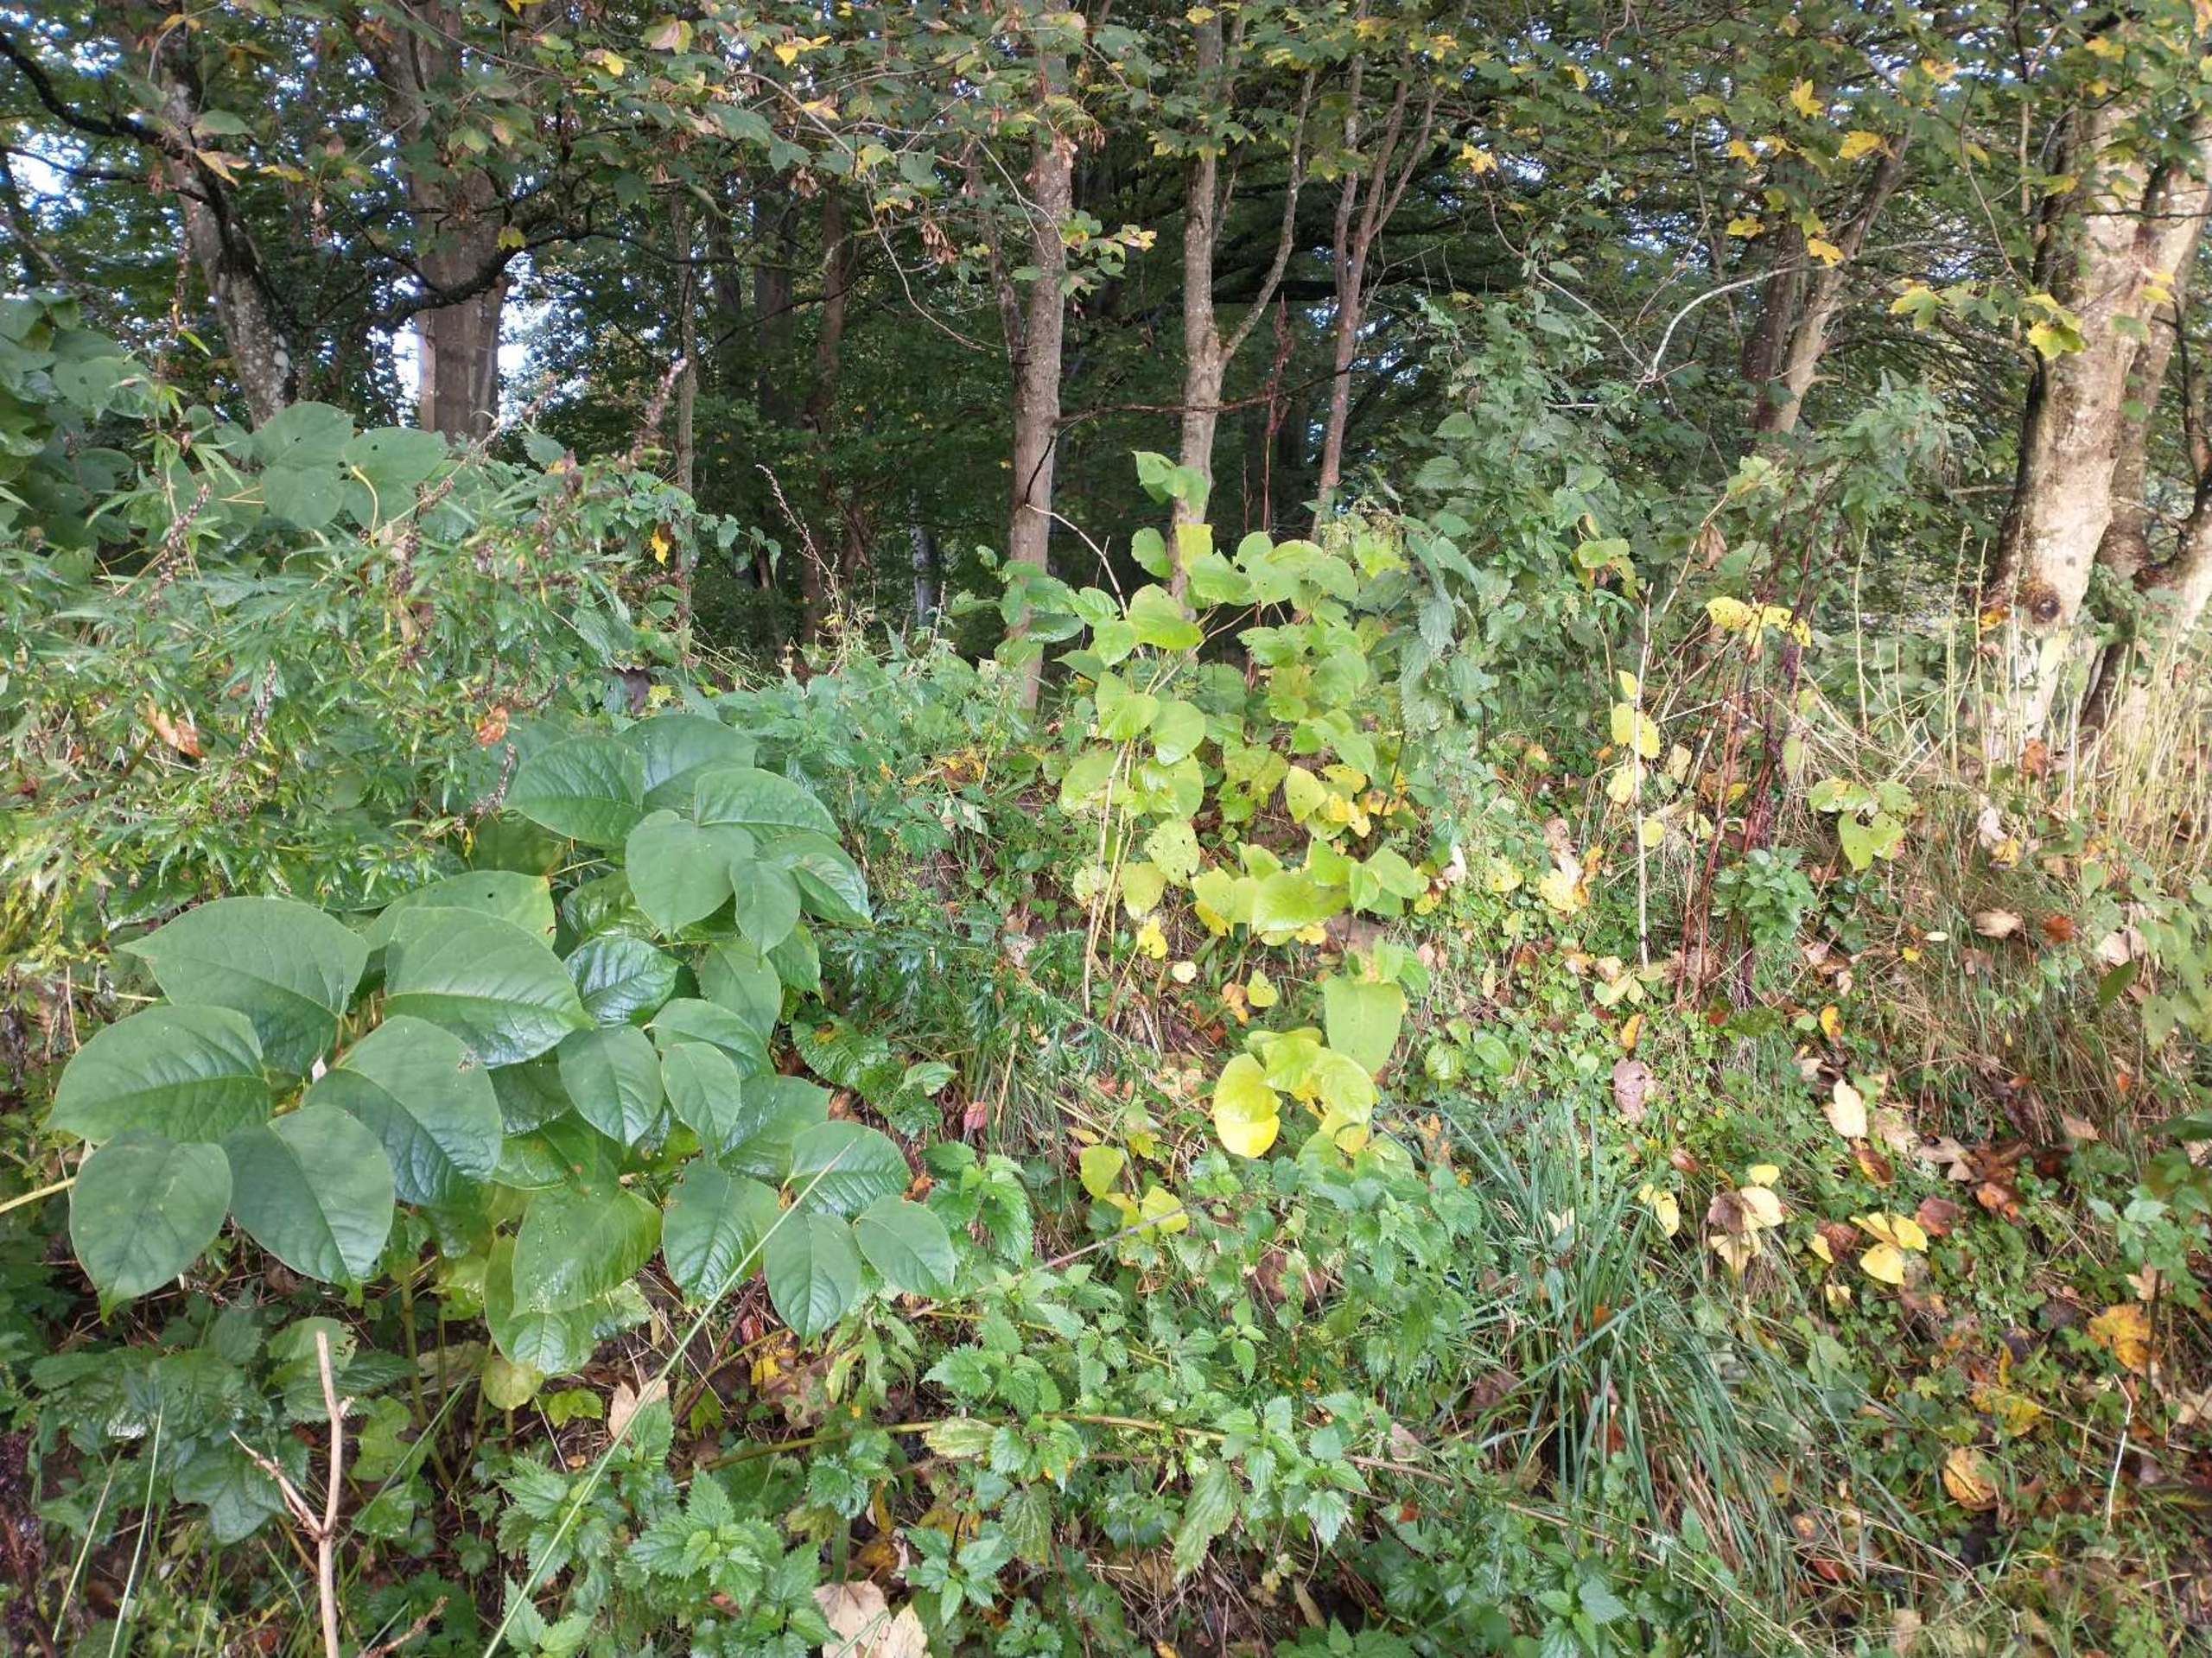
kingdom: Plantae
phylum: Tracheophyta
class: Magnoliopsida
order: Caryophyllales
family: Polygonaceae
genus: Reynoutria
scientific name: Reynoutria japonica
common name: Japan-pileurt
